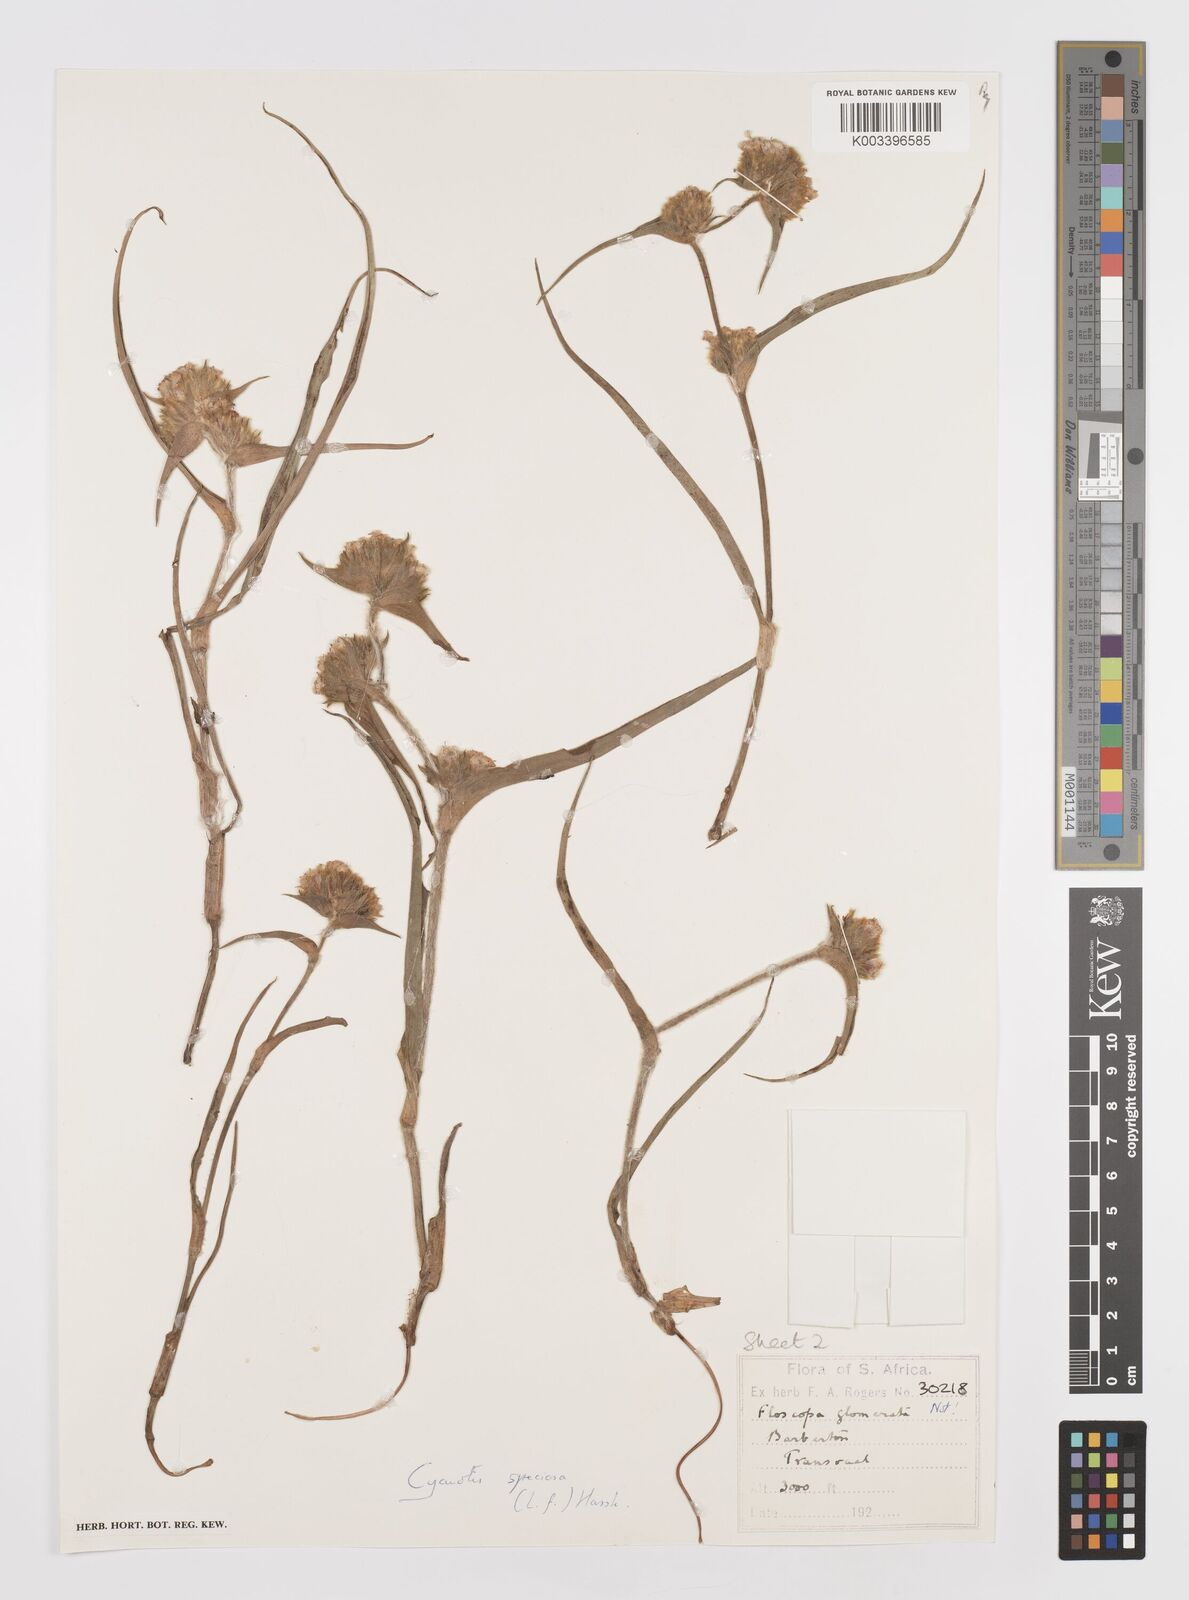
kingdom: Plantae
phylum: Tracheophyta
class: Liliopsida
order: Commelinales
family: Commelinaceae
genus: Cyanotis
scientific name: Cyanotis speciosa
